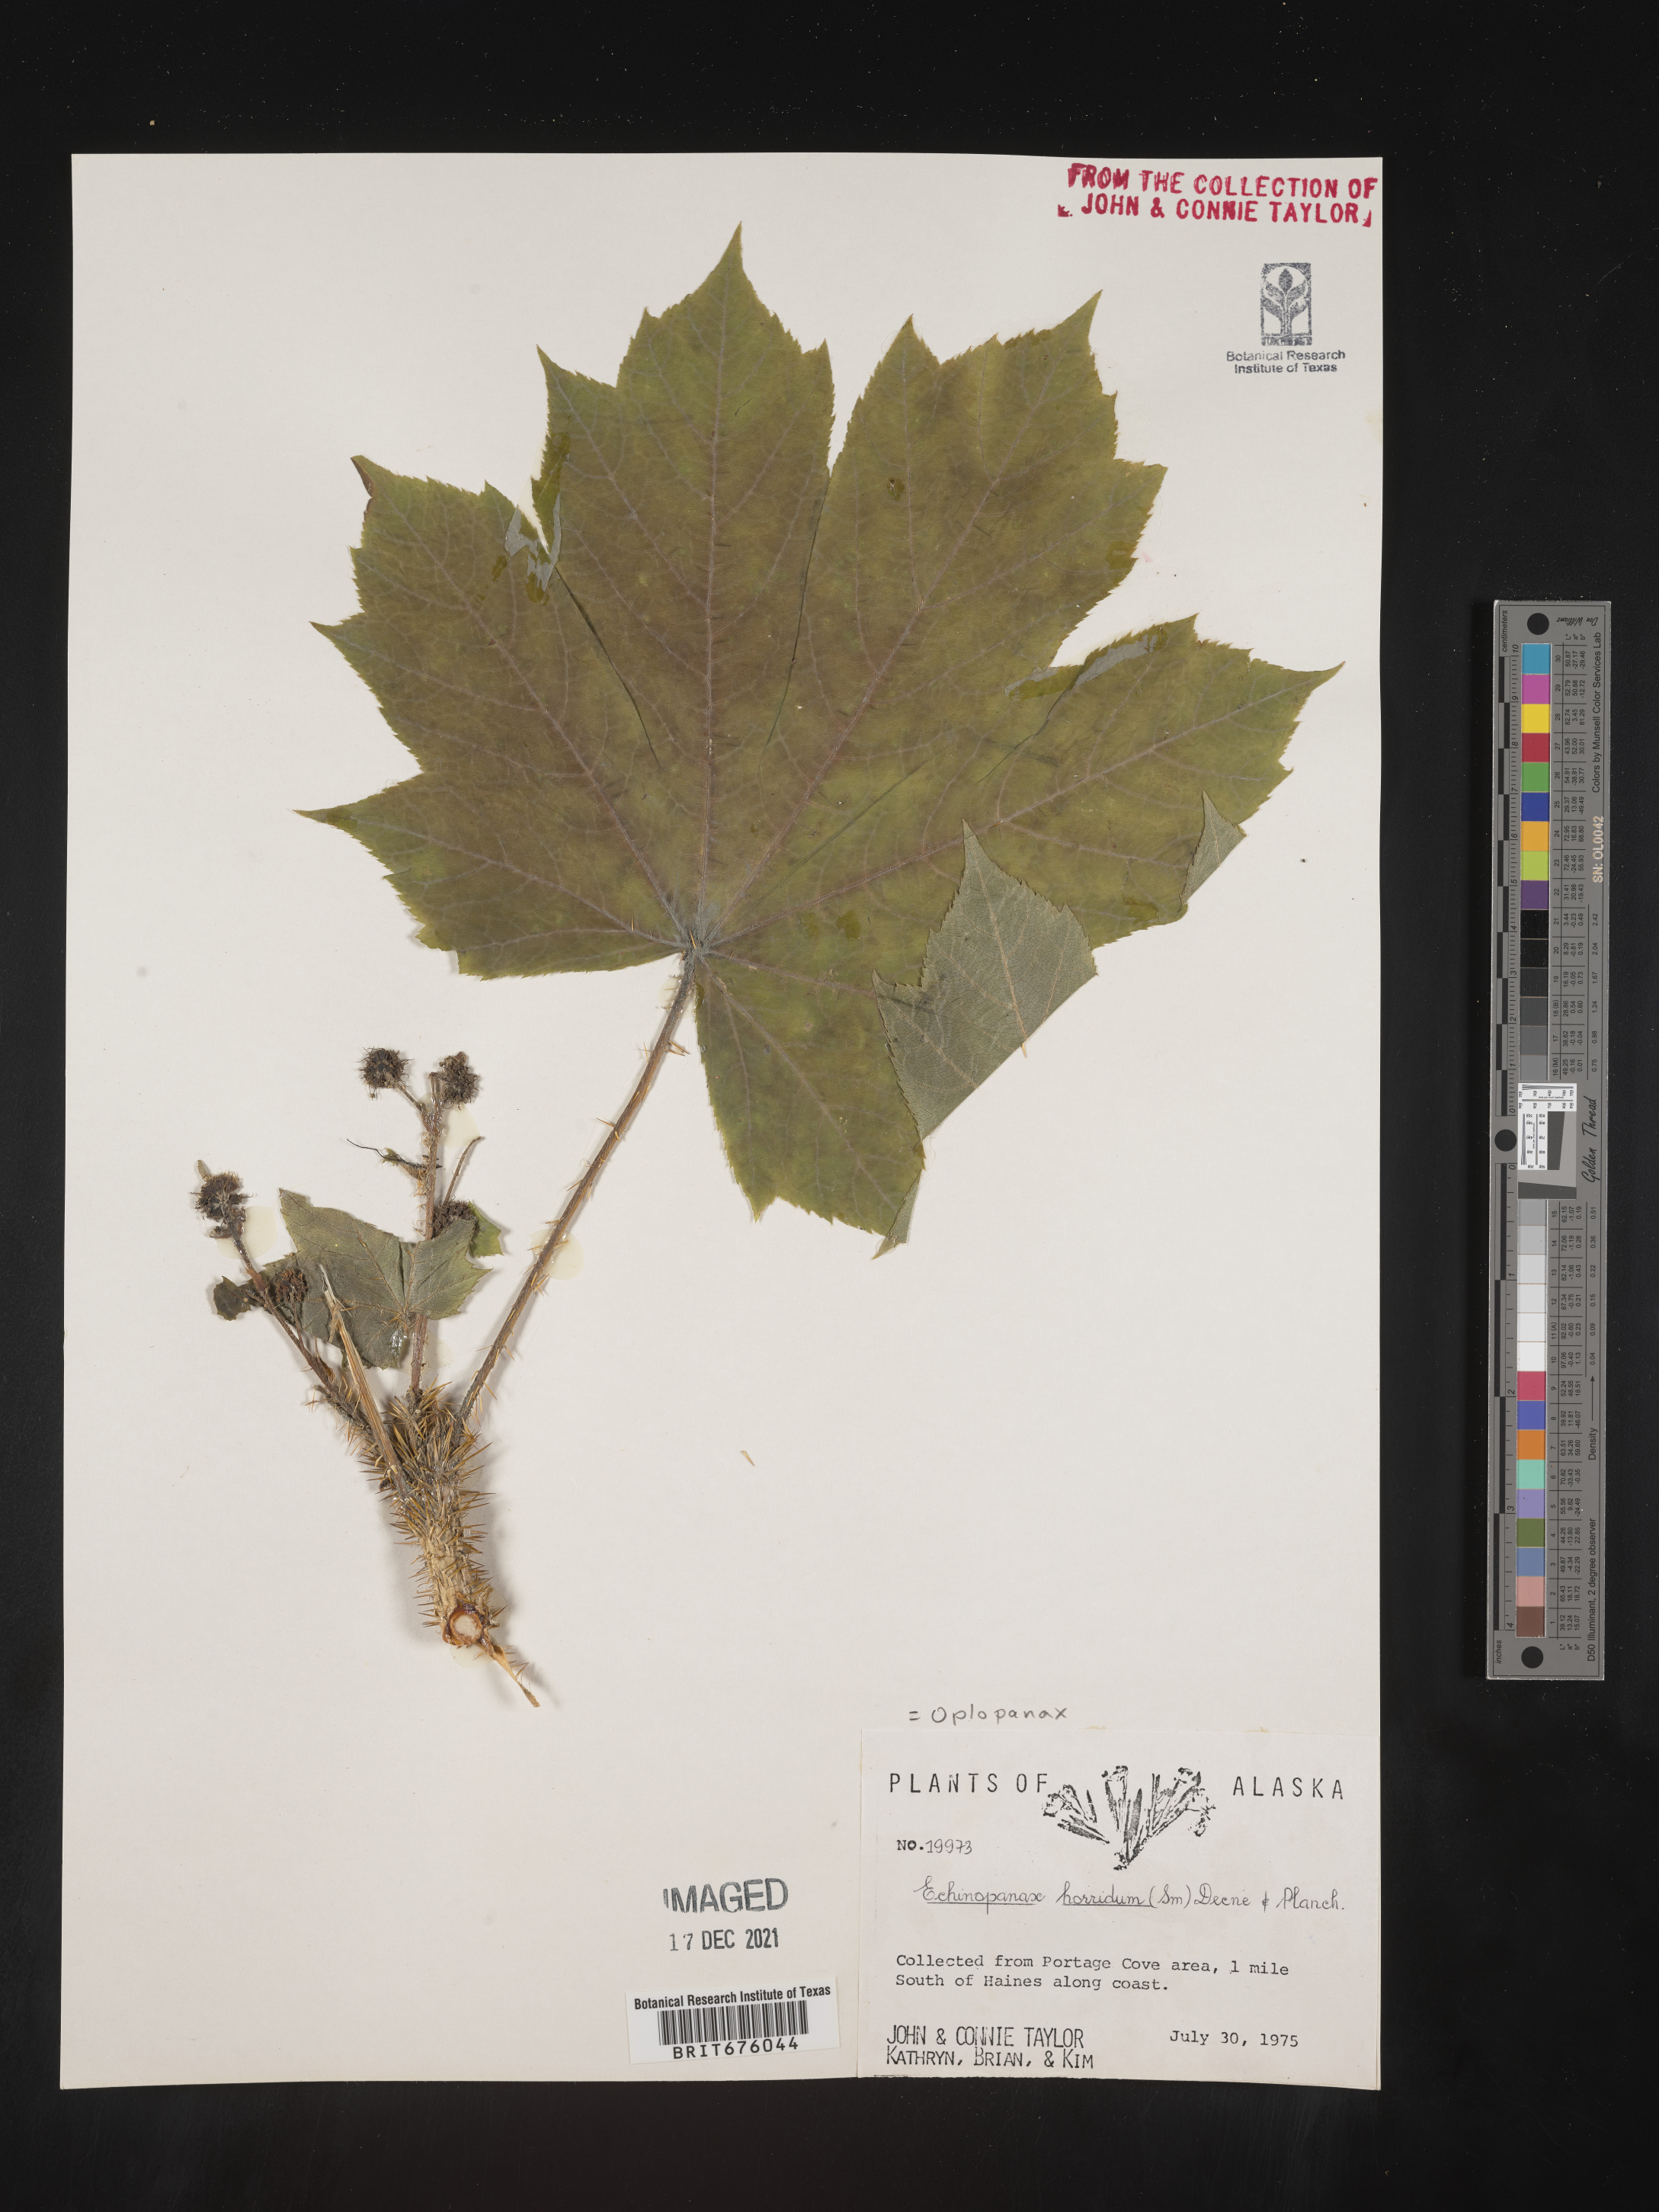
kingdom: Plantae
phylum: Tracheophyta
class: Magnoliopsida
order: Apiales
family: Araliaceae
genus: Oplopanax
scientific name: Oplopanax
